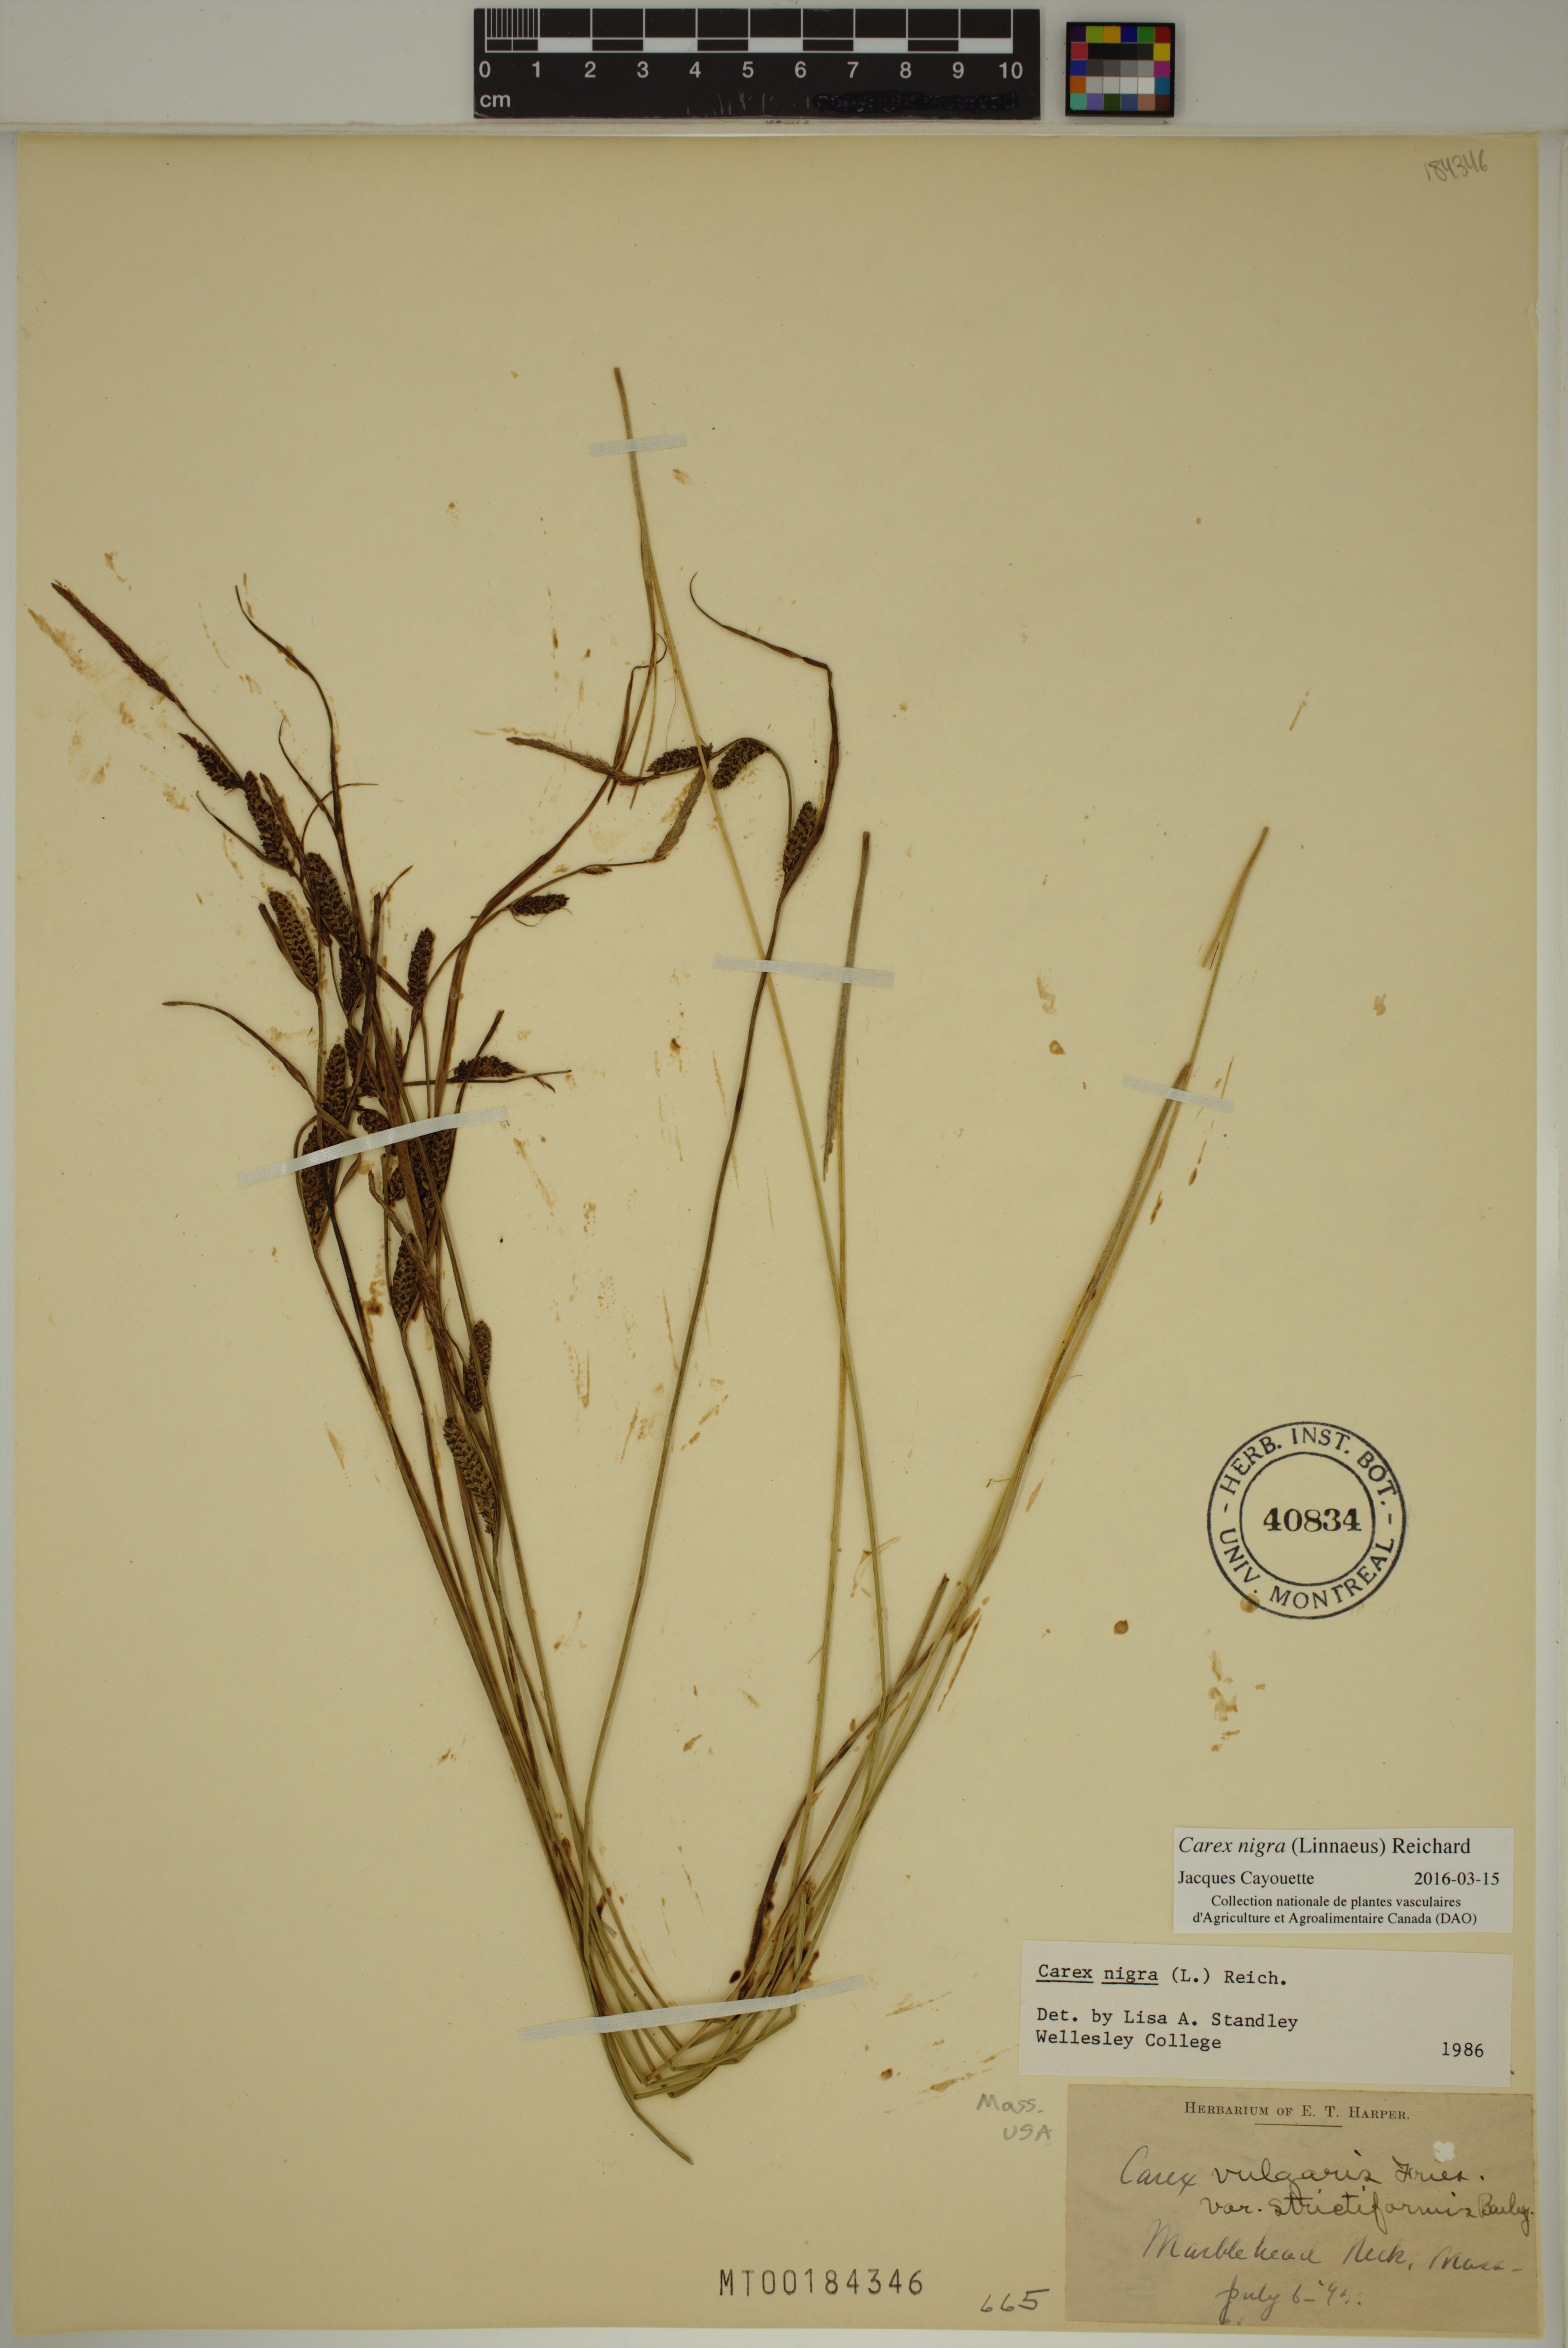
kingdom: Plantae
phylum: Tracheophyta
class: Liliopsida
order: Poales
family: Cyperaceae
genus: Carex
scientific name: Carex nigra
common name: Common sedge
